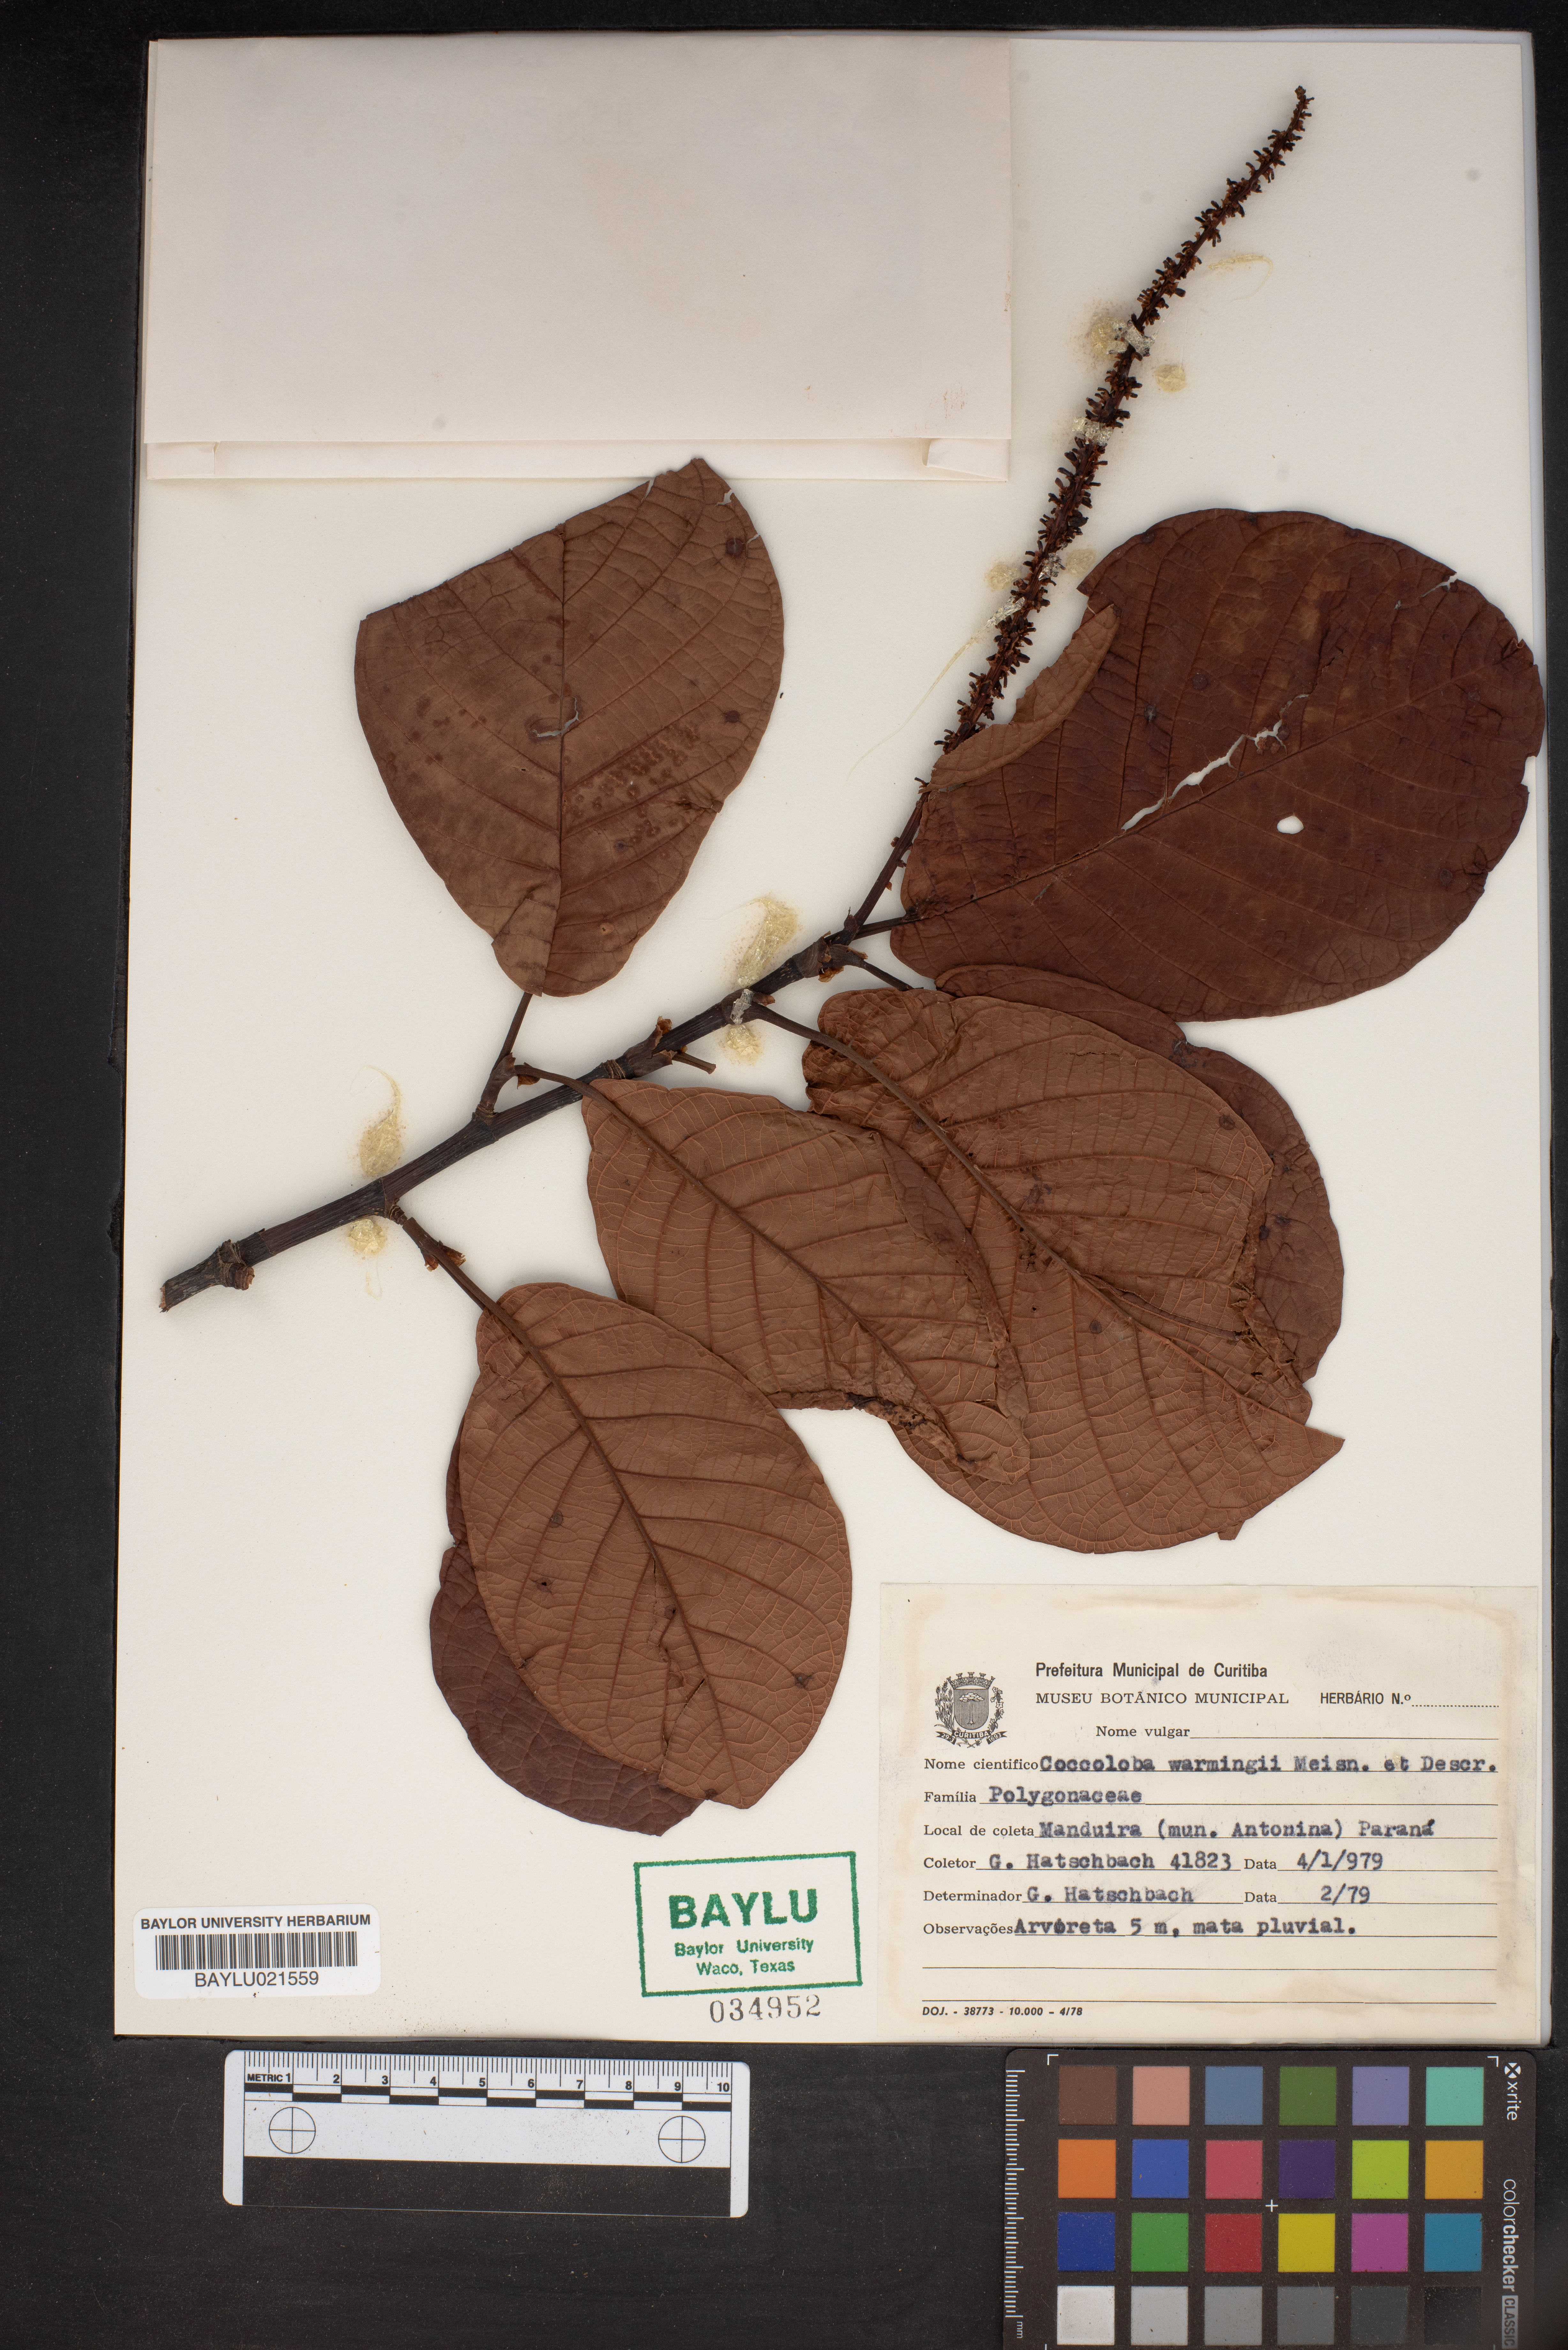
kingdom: Plantae
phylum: Tracheophyta
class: Magnoliopsida
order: Caryophyllales
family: Polygonaceae
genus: Coccoloba
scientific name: Coccoloba warmingii
